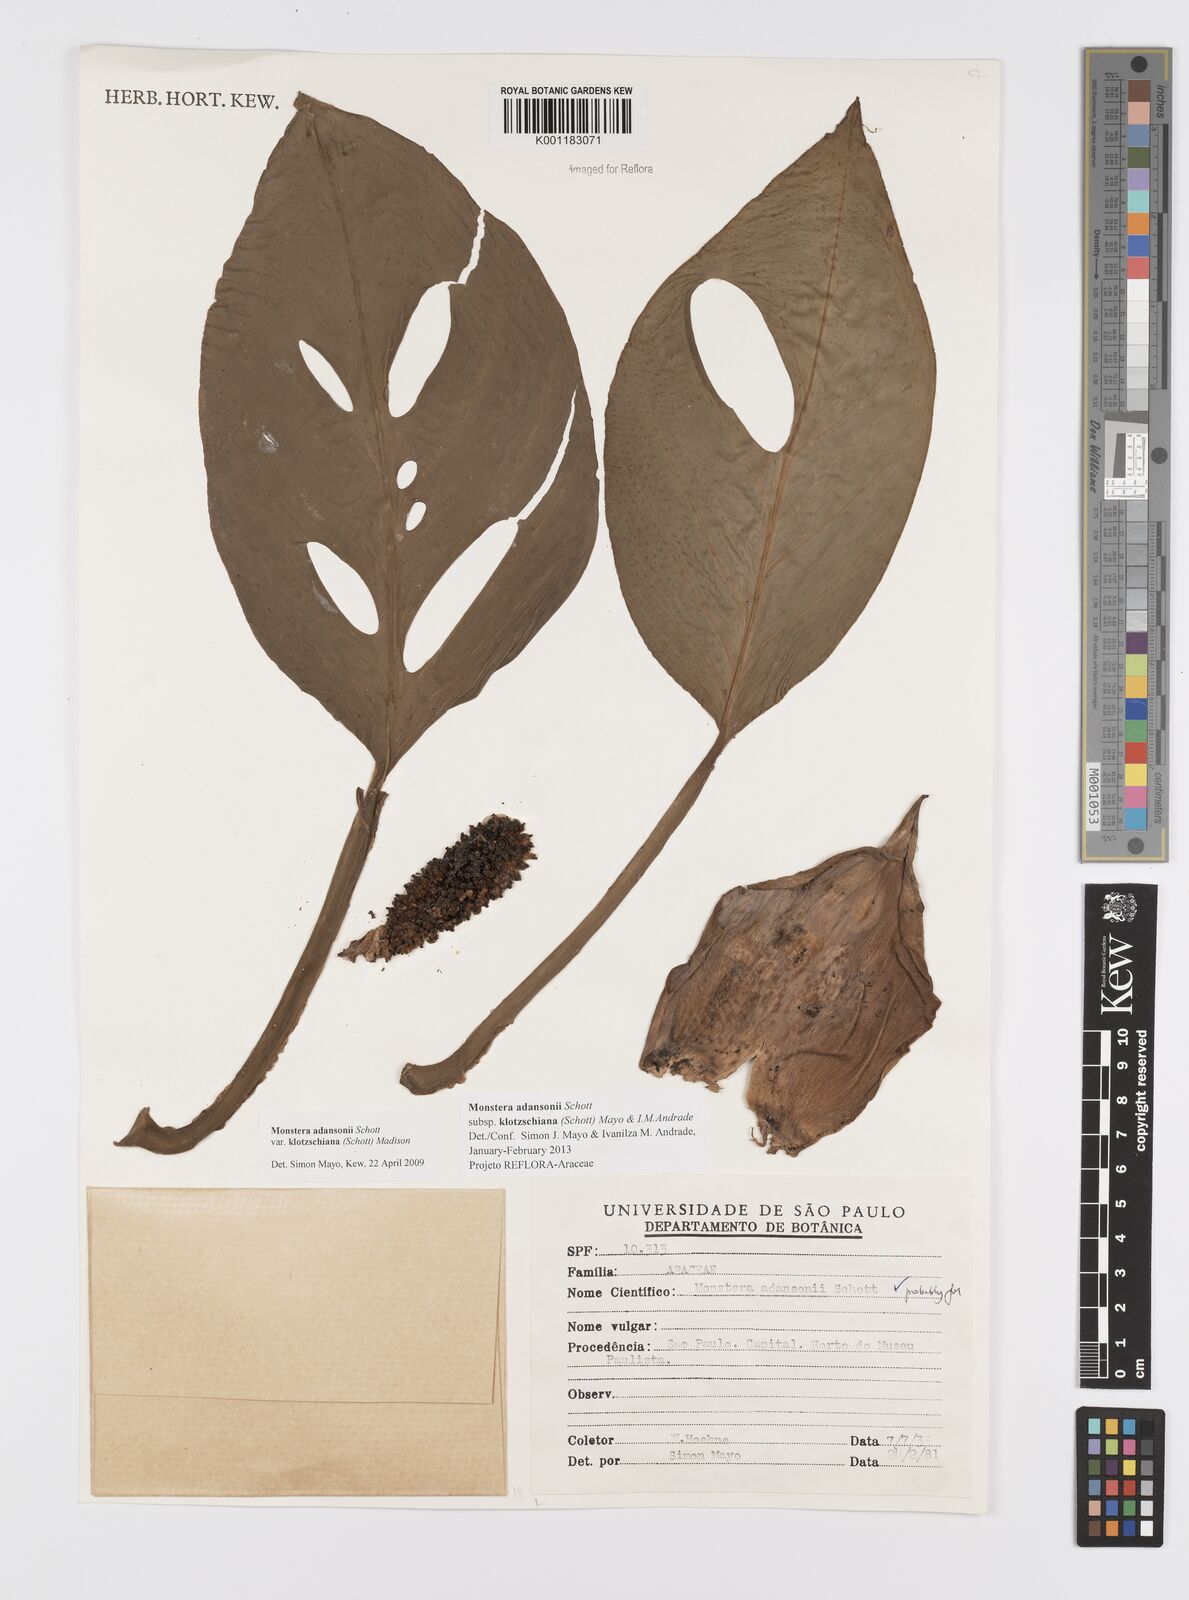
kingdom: Plantae
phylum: Tracheophyta
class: Liliopsida
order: Alismatales
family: Araceae
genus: Monstera
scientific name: Monstera adansonii
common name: Tarovine
